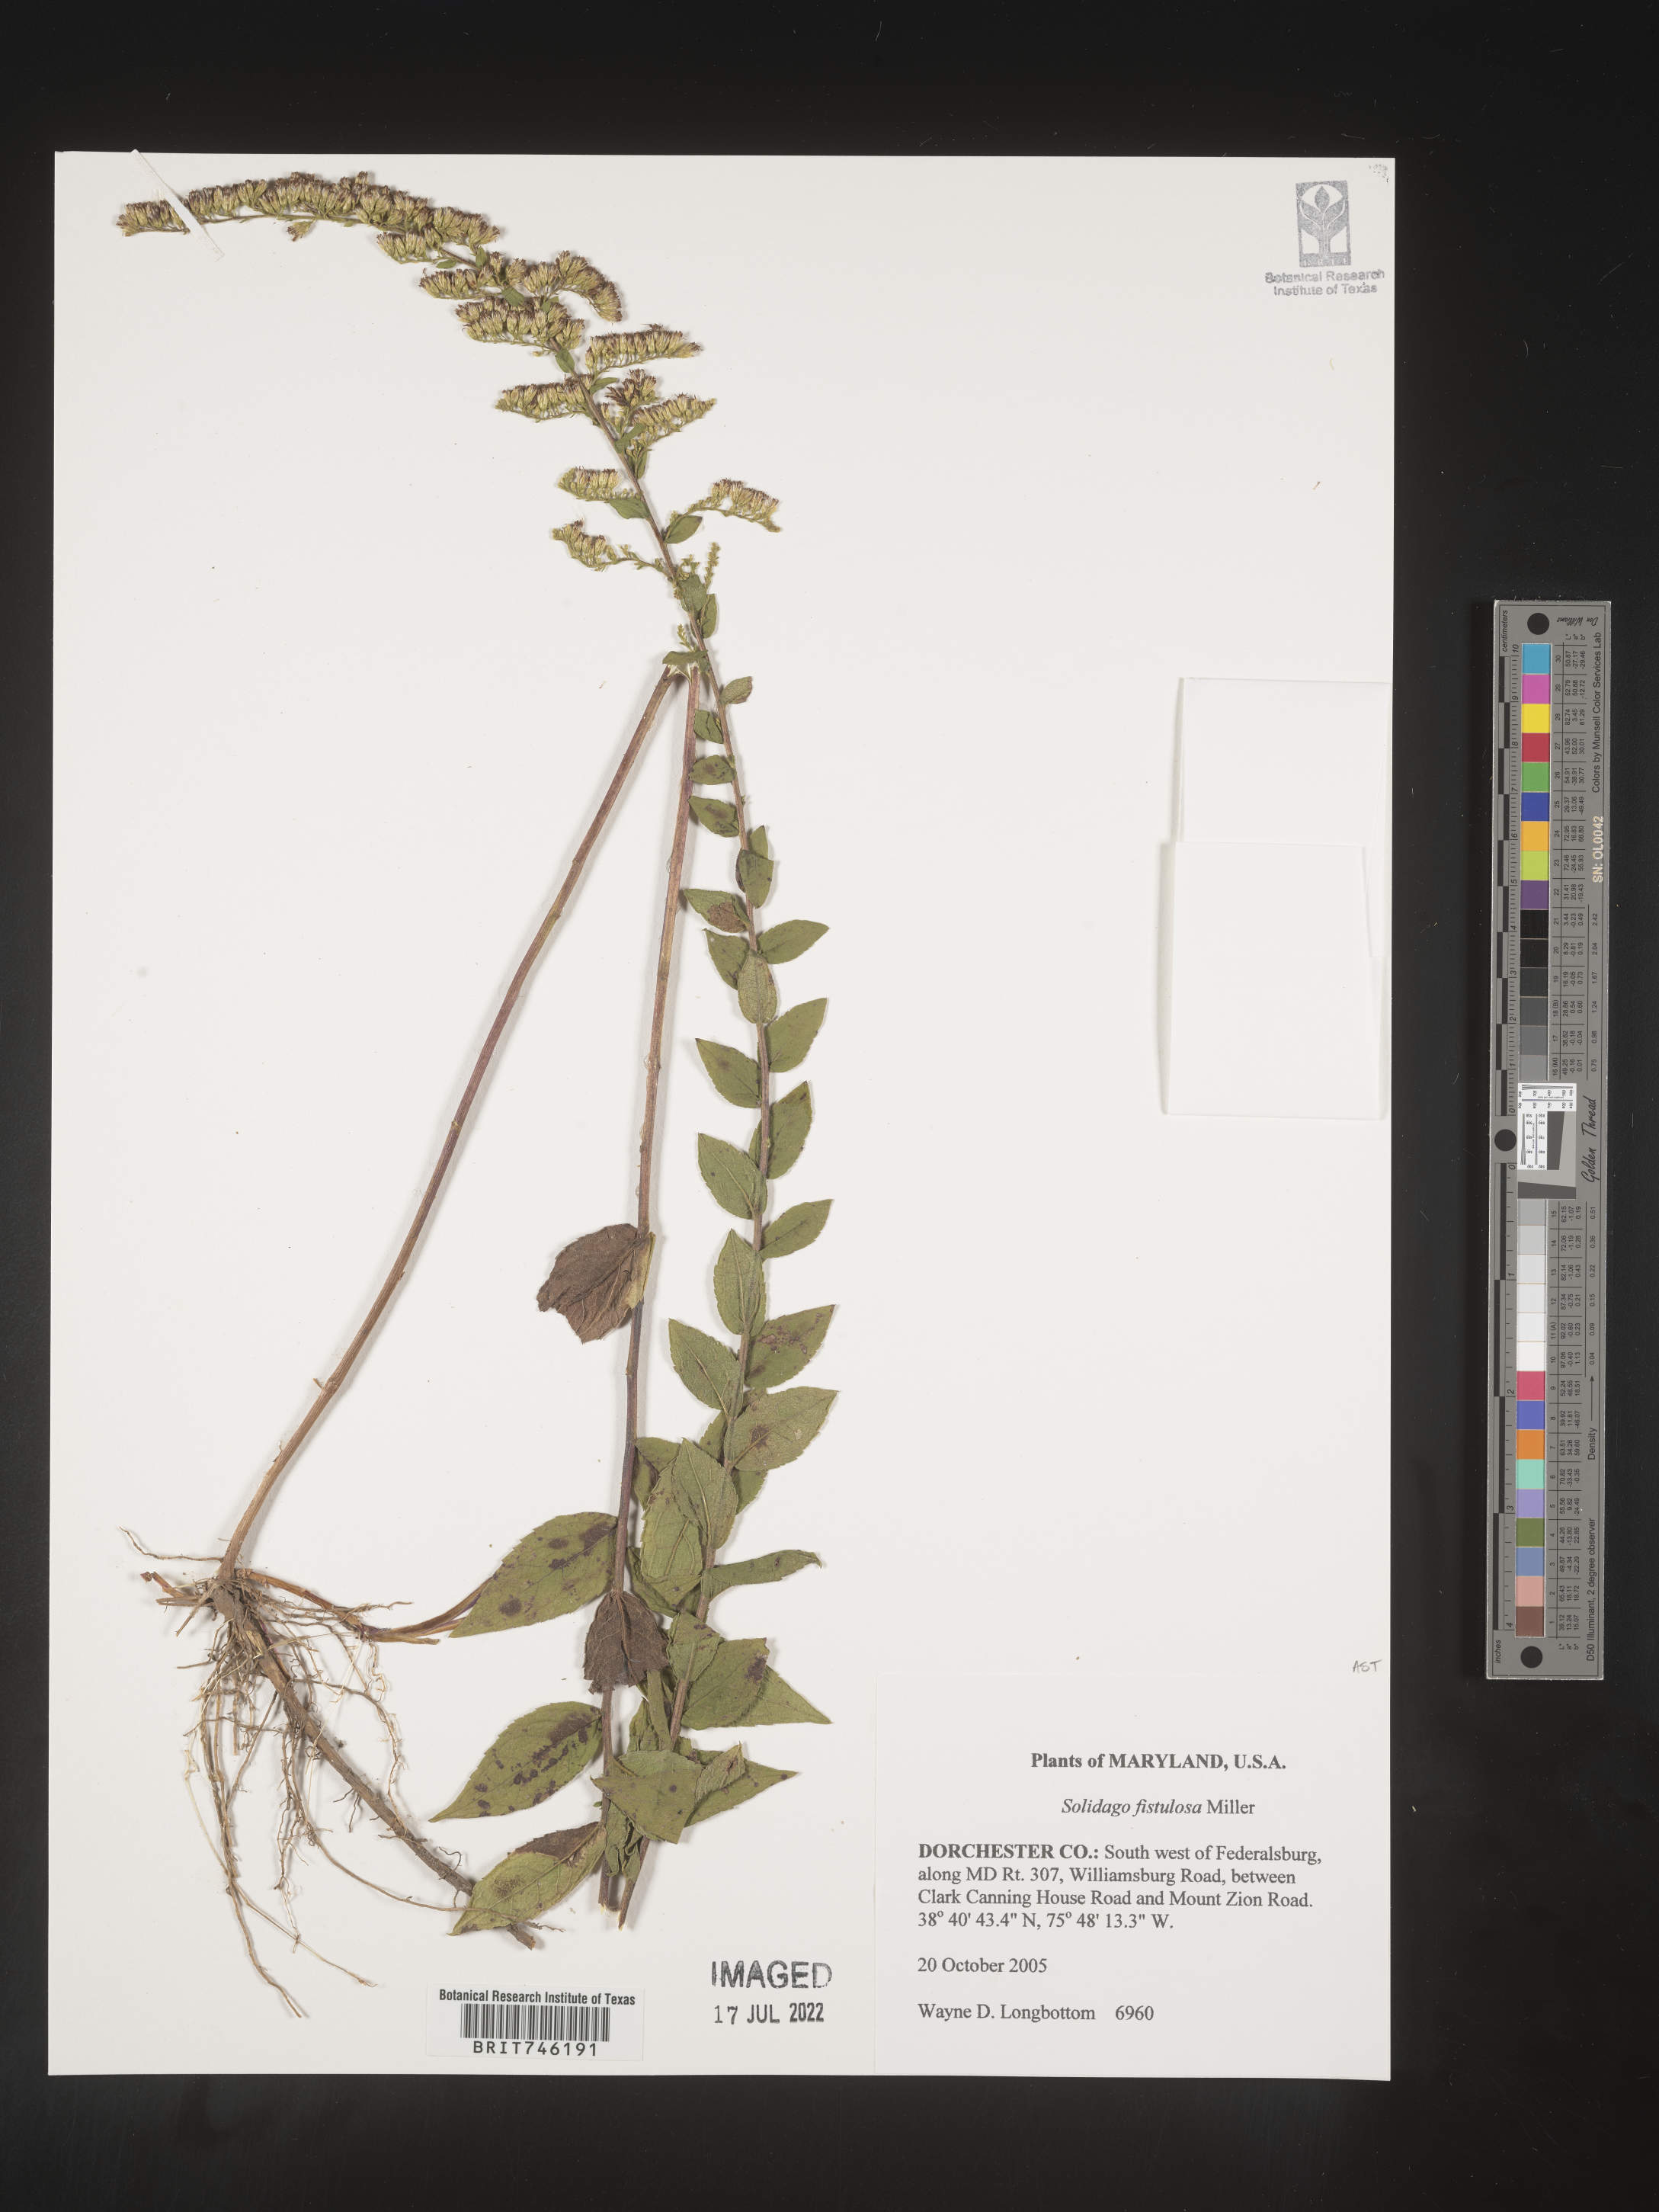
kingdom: Plantae
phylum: Tracheophyta
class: Magnoliopsida
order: Asterales
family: Asteraceae
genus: Solidago
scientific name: Solidago fistulosa
